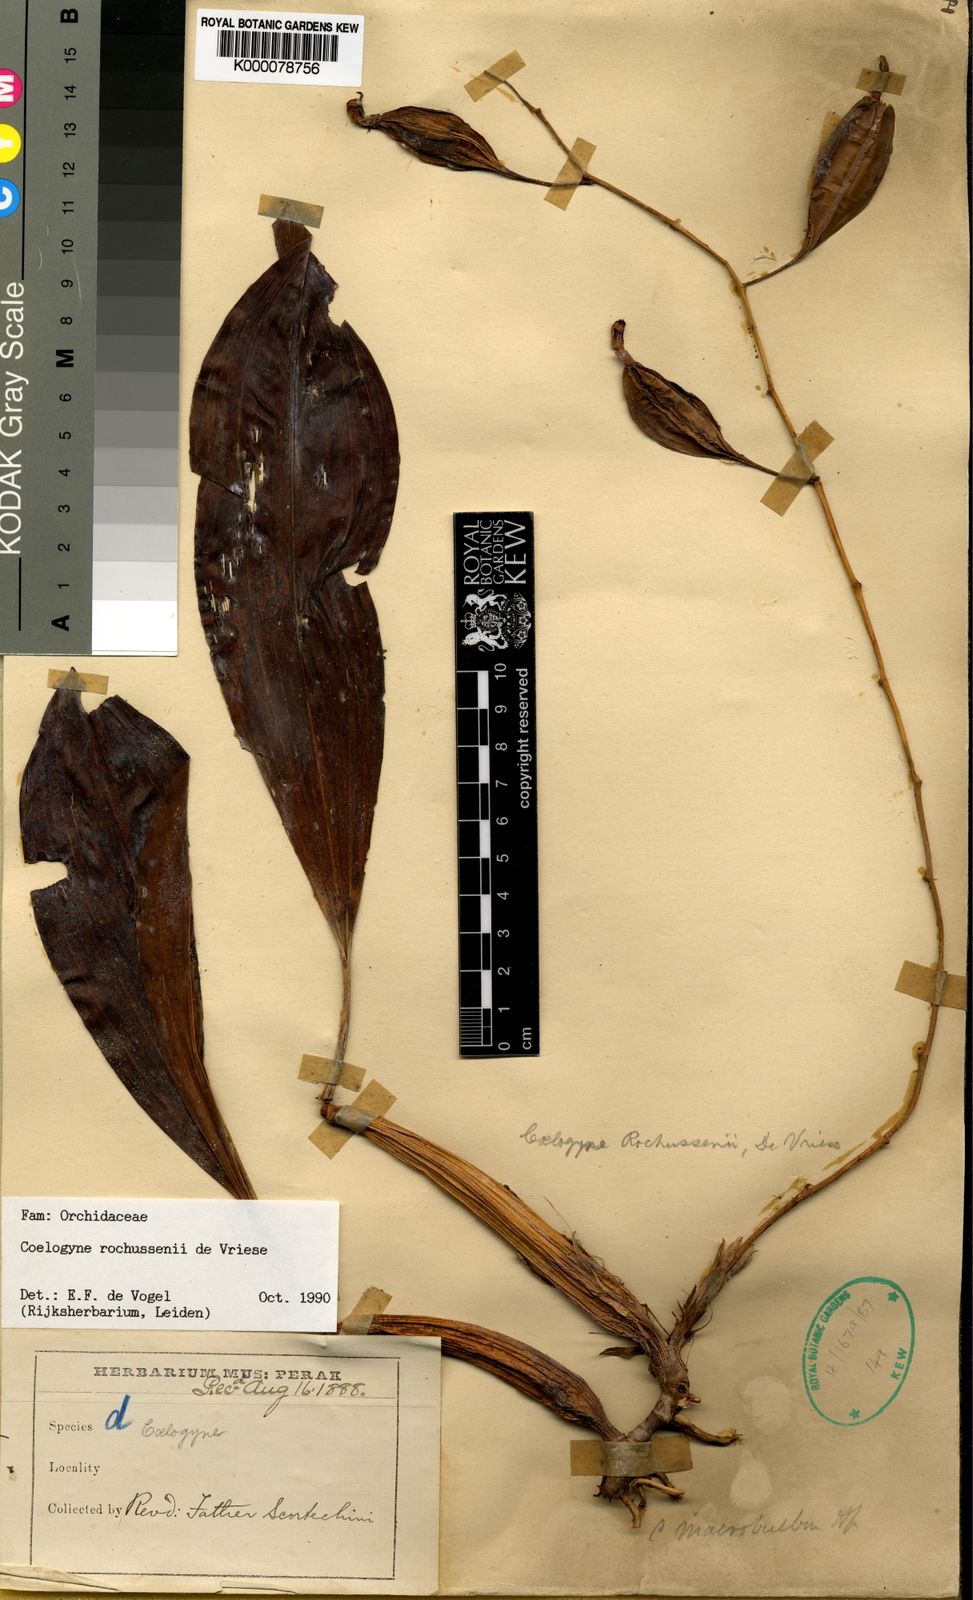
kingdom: Plantae
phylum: Tracheophyta
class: Liliopsida
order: Asparagales
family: Orchidaceae
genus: Coelogyne
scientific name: Coelogyne rochussenii
